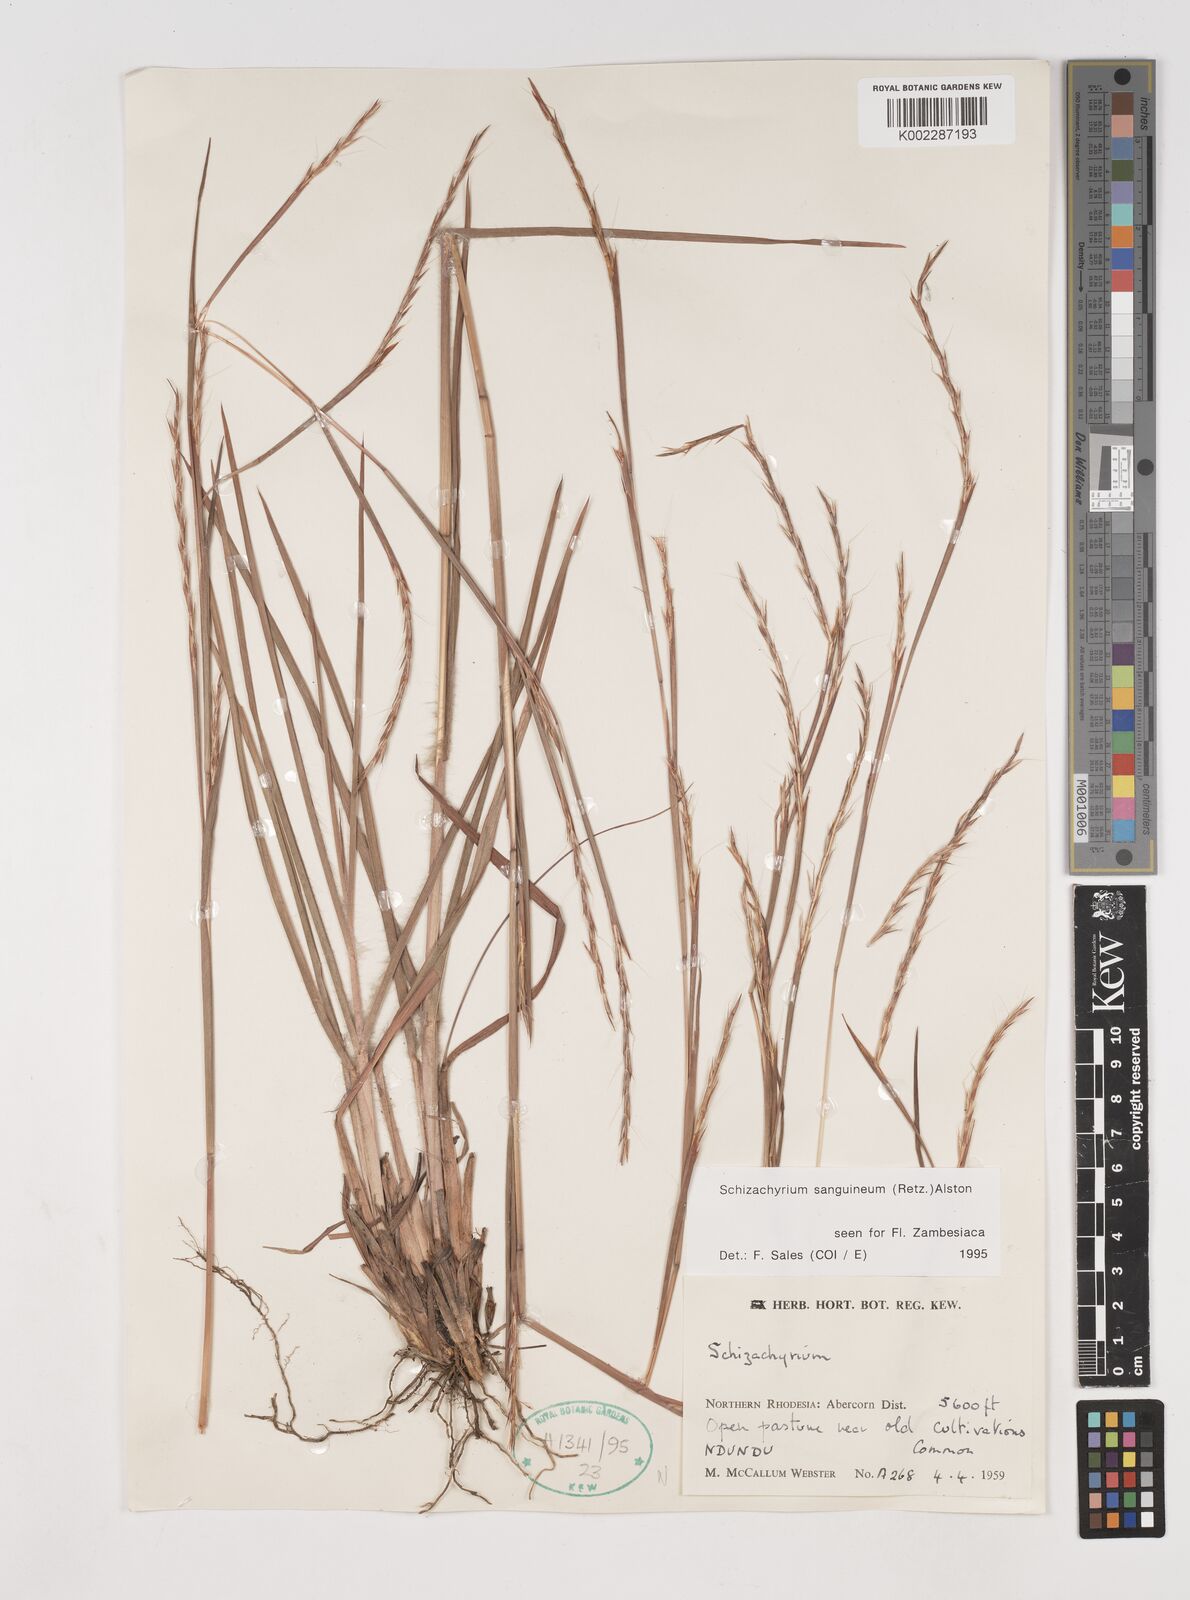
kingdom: Plantae
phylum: Tracheophyta
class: Liliopsida
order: Poales
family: Poaceae
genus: Schizachyrium
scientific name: Schizachyrium sanguineum
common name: Crimson bluestem
